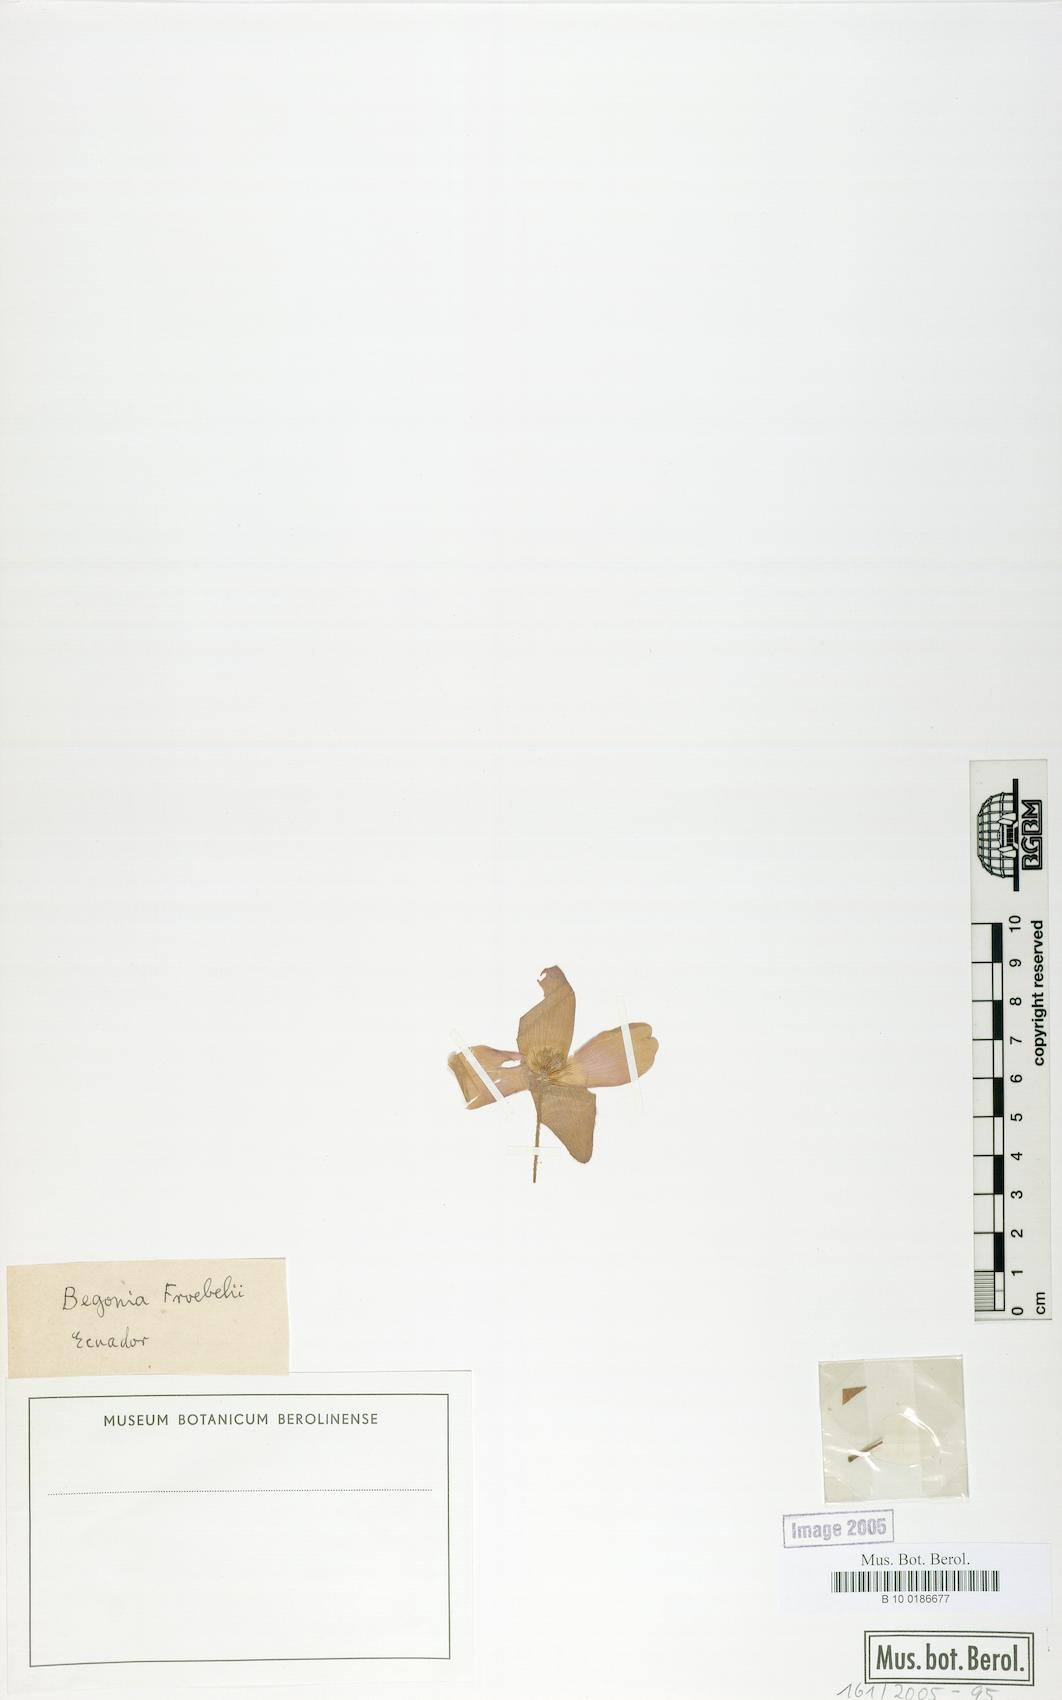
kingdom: Plantae
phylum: Tracheophyta
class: Magnoliopsida
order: Cucurbitales
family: Begoniaceae
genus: Begonia
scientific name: Begonia froebelii
